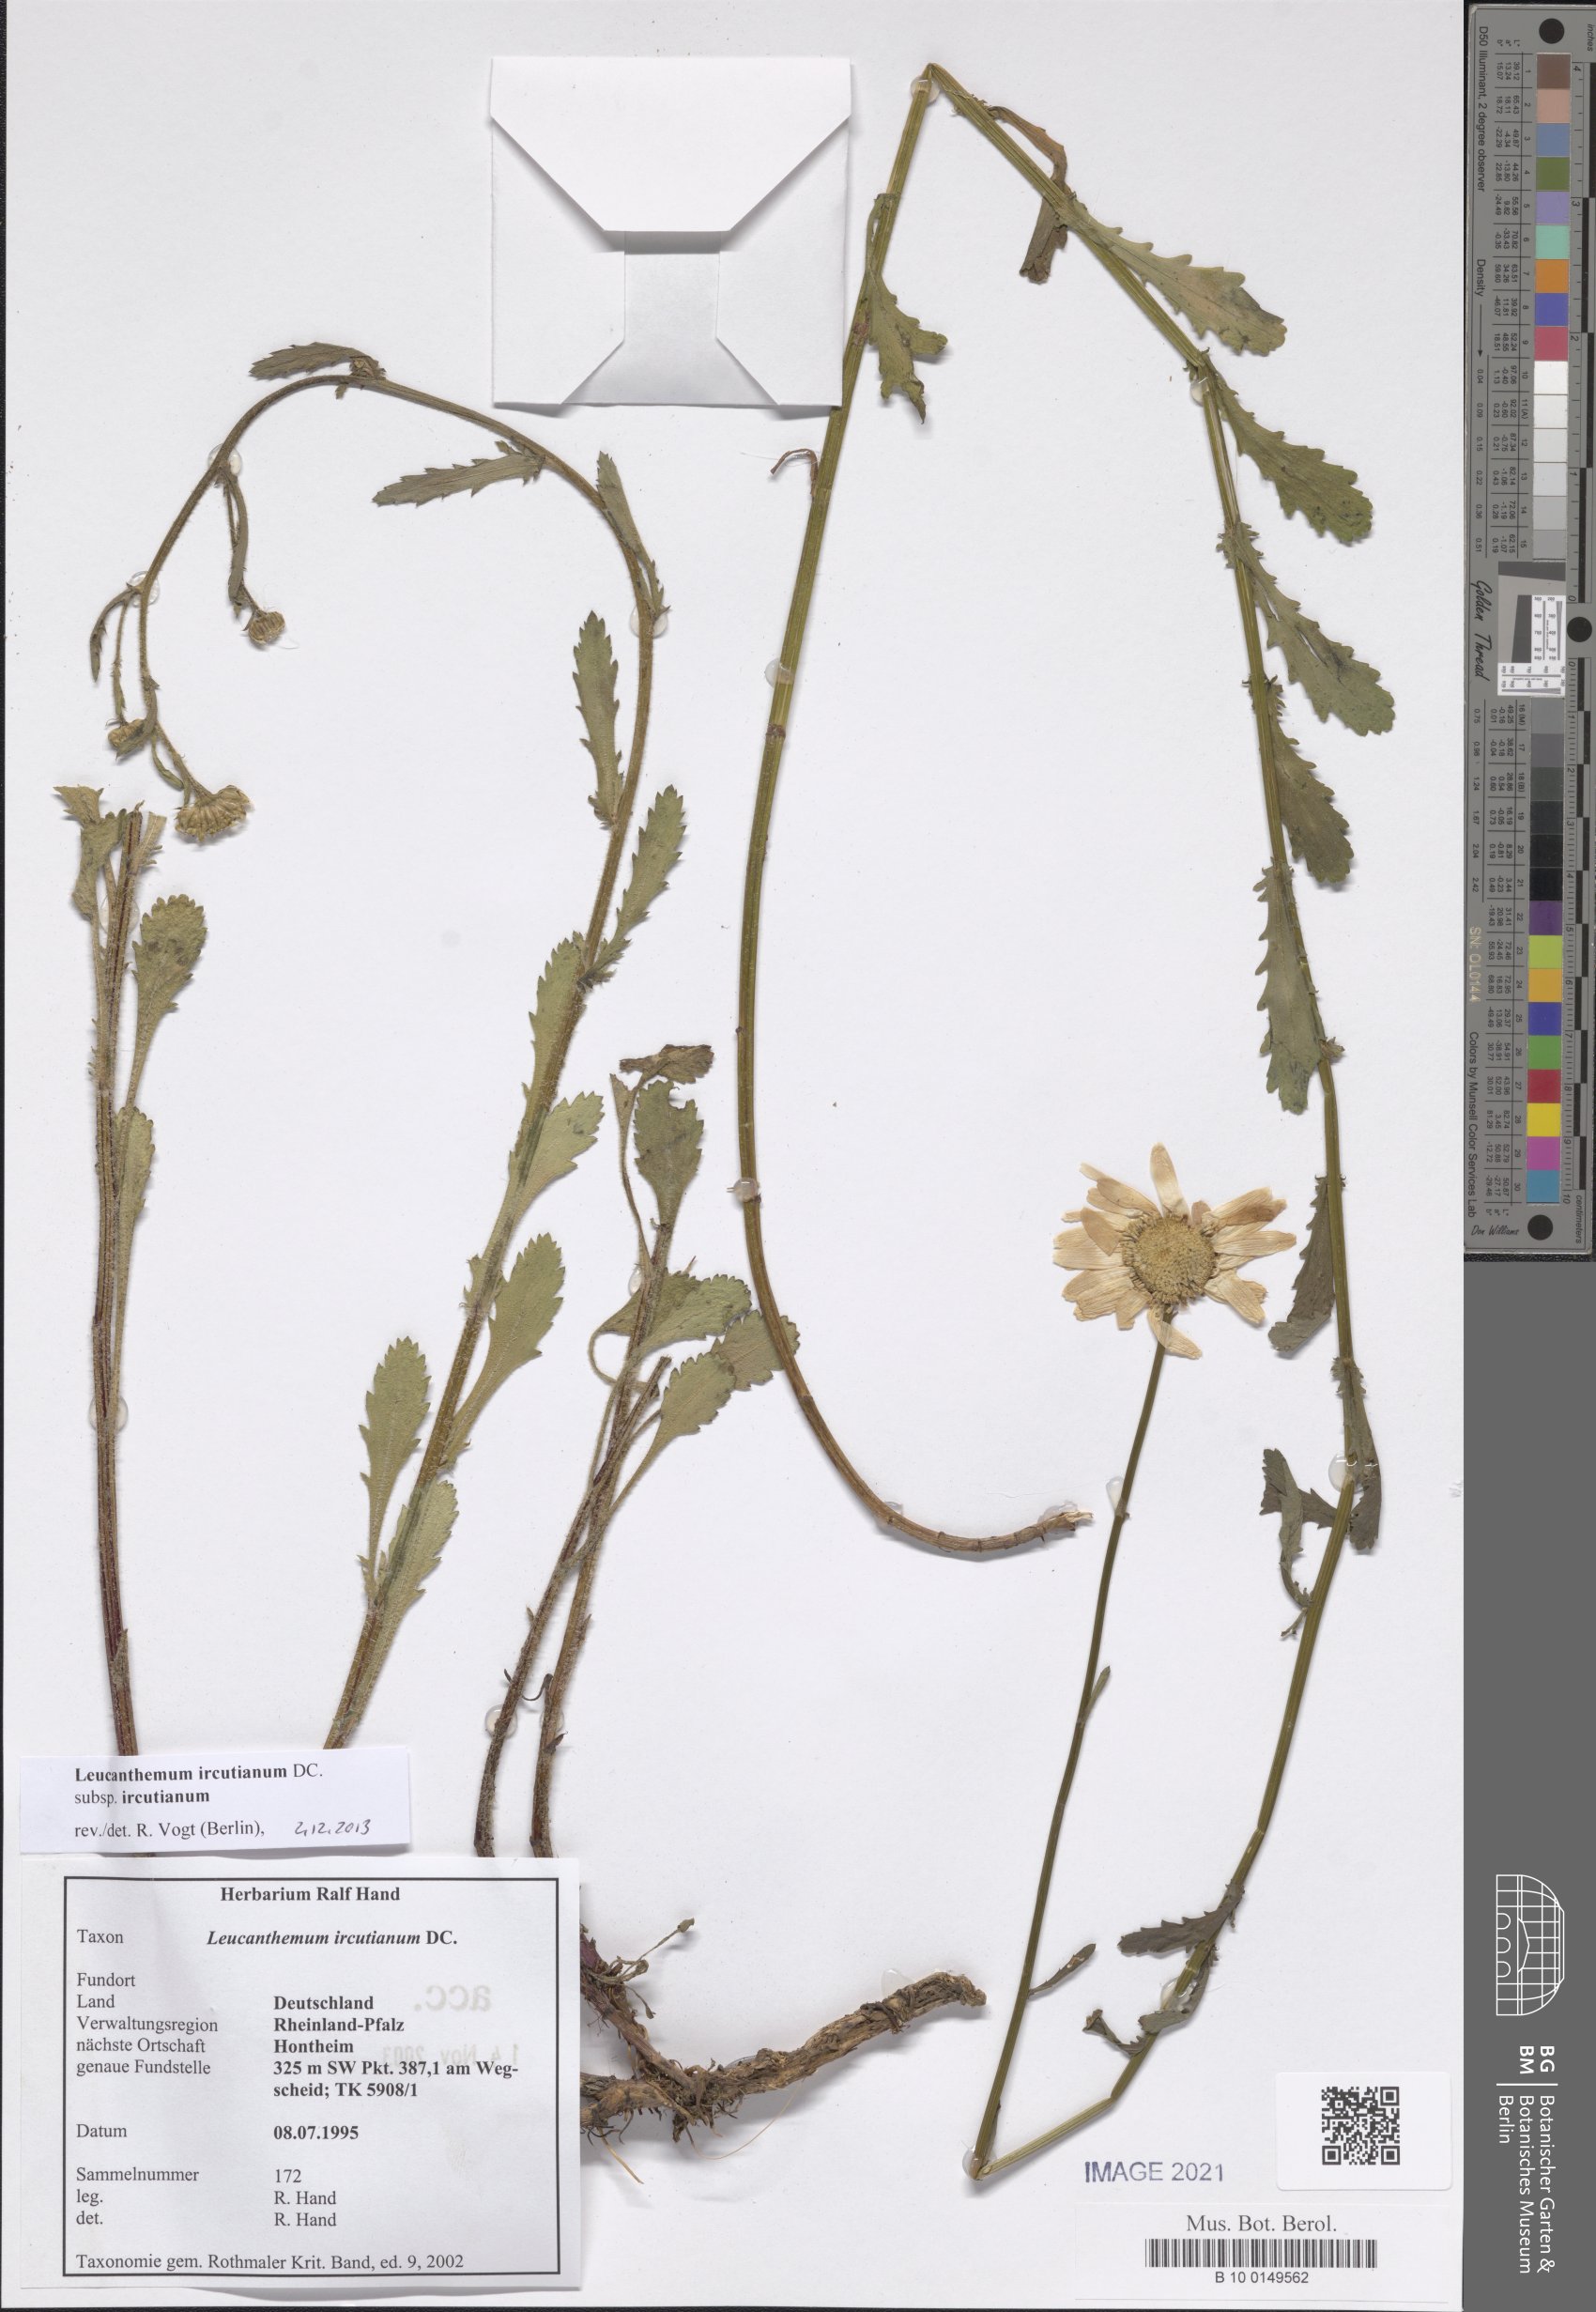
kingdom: Plantae
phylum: Tracheophyta
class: Magnoliopsida
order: Asterales
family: Asteraceae
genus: Leucanthemum
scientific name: Leucanthemum ircutianum
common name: Daisy
